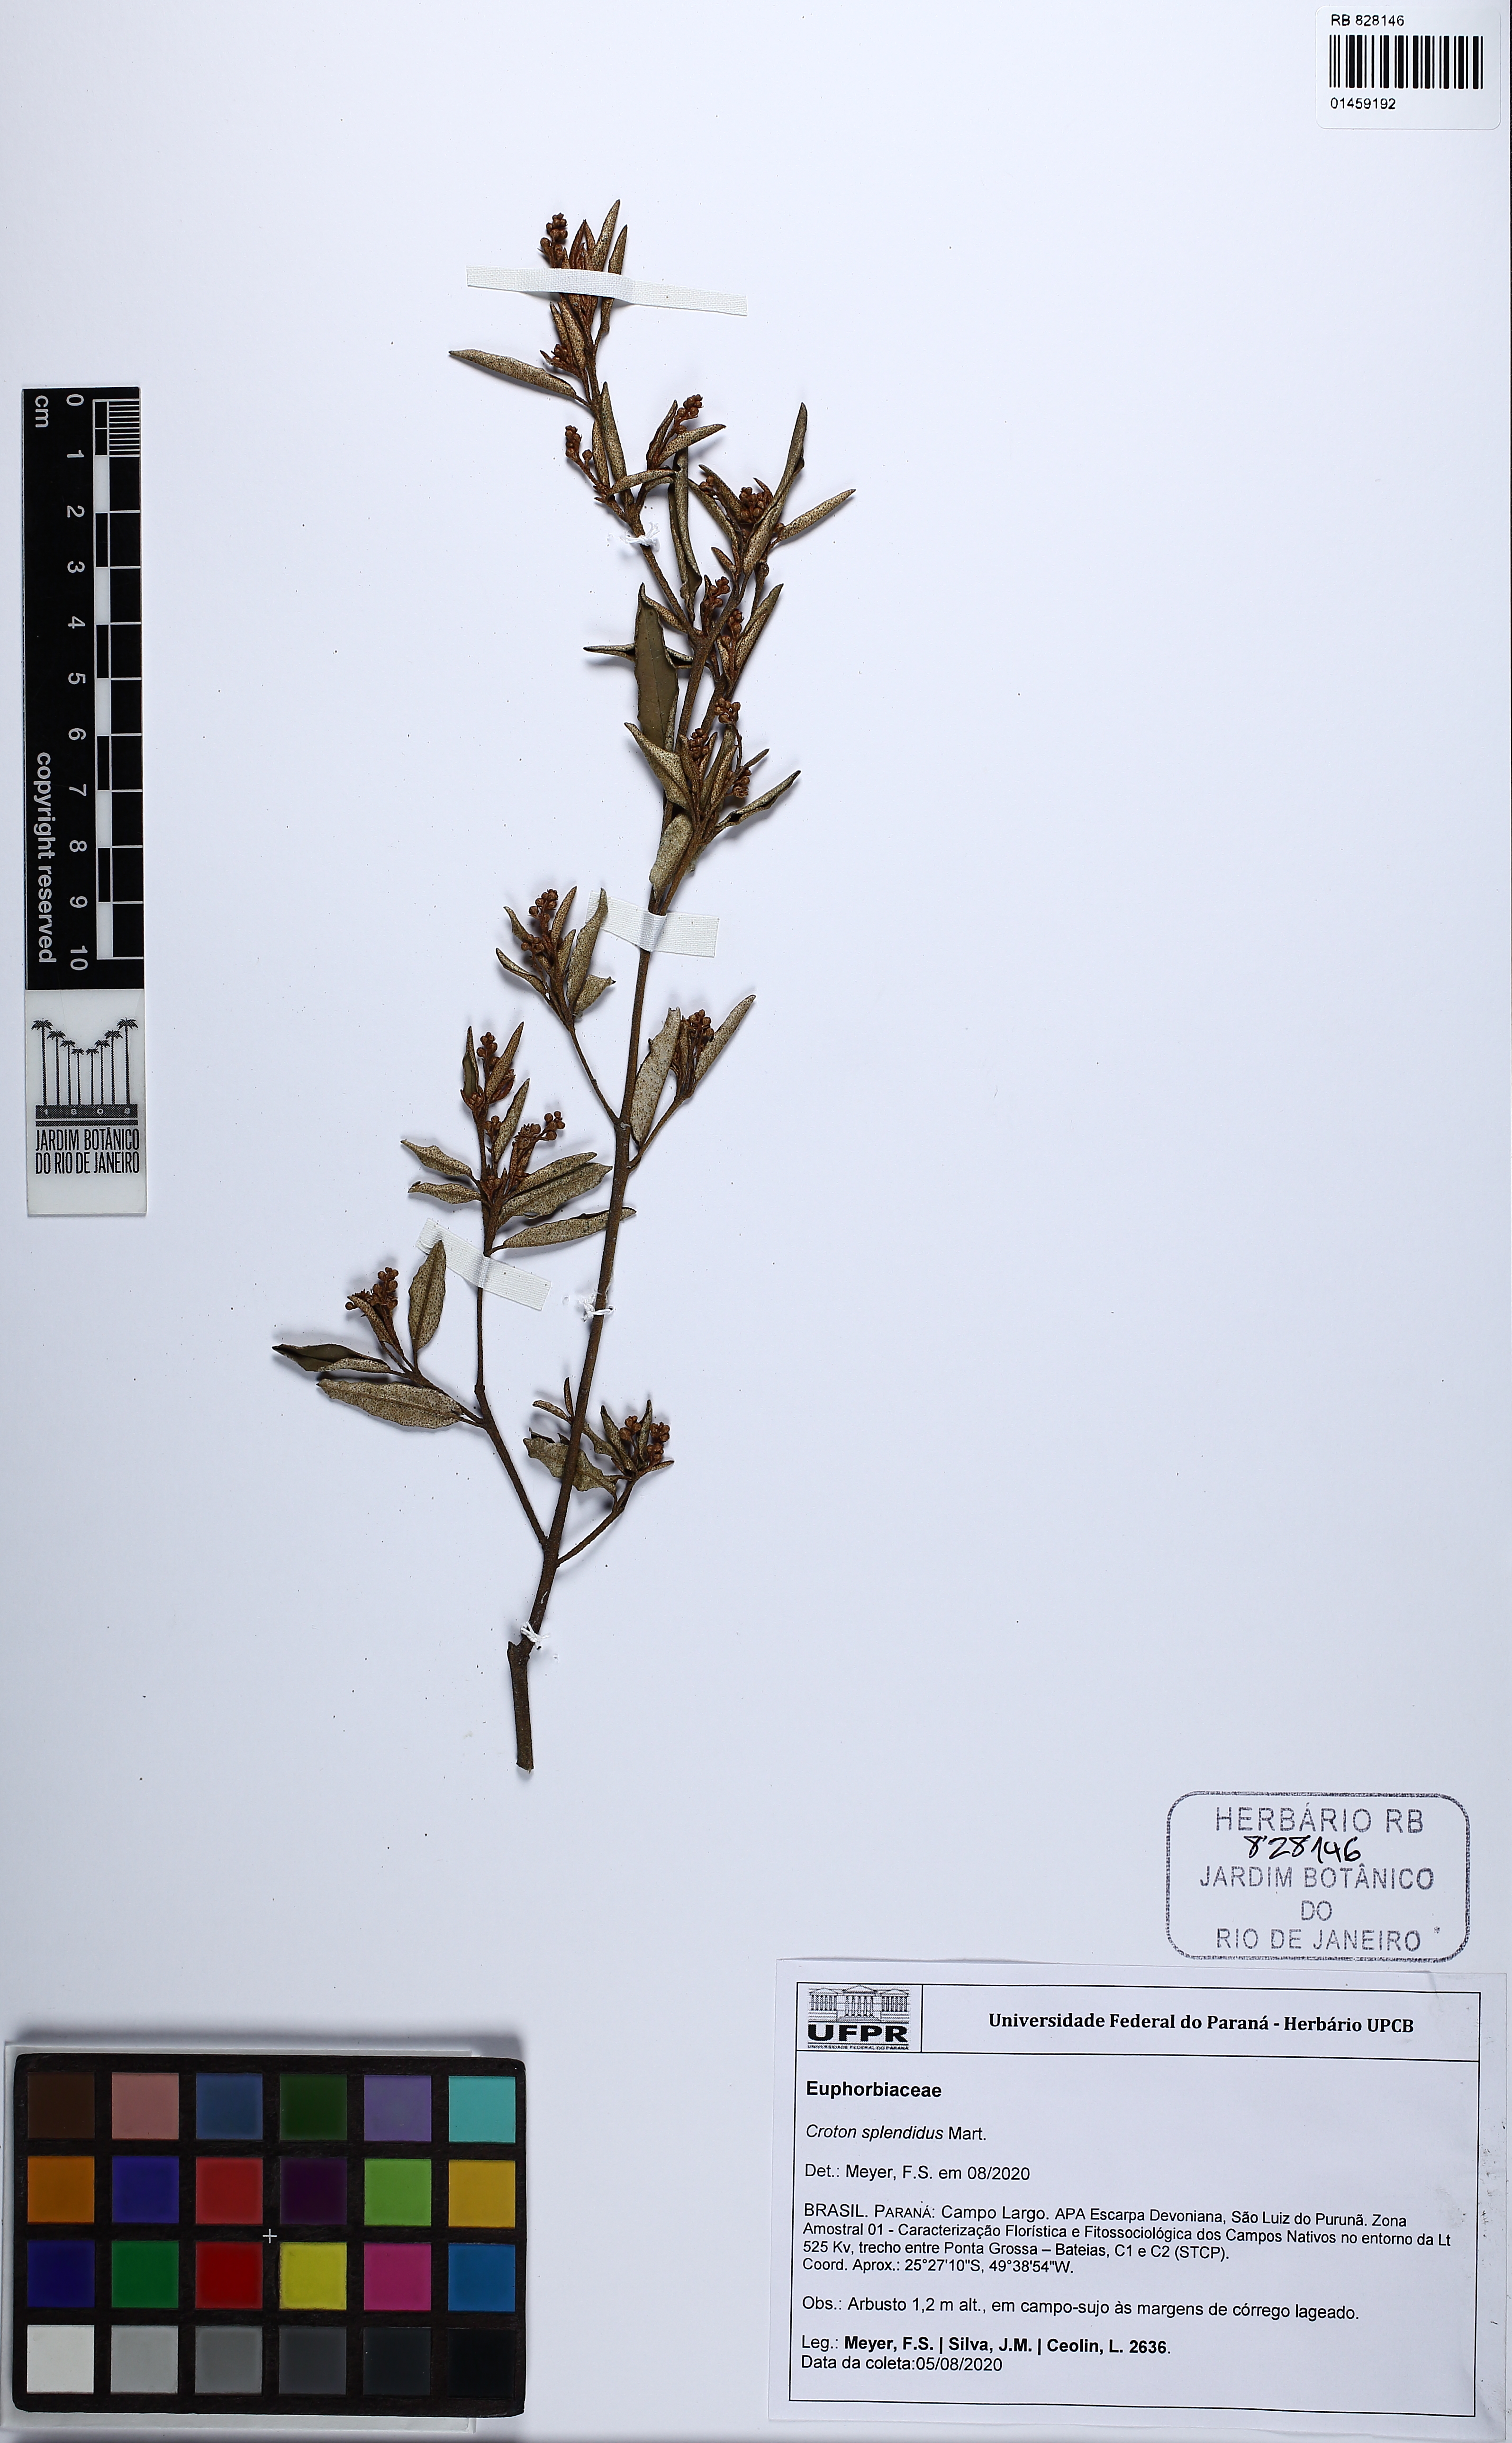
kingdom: Plantae
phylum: Tracheophyta
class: Magnoliopsida
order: Malpighiales
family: Euphorbiaceae
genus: Croton
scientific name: Croton splendidus
